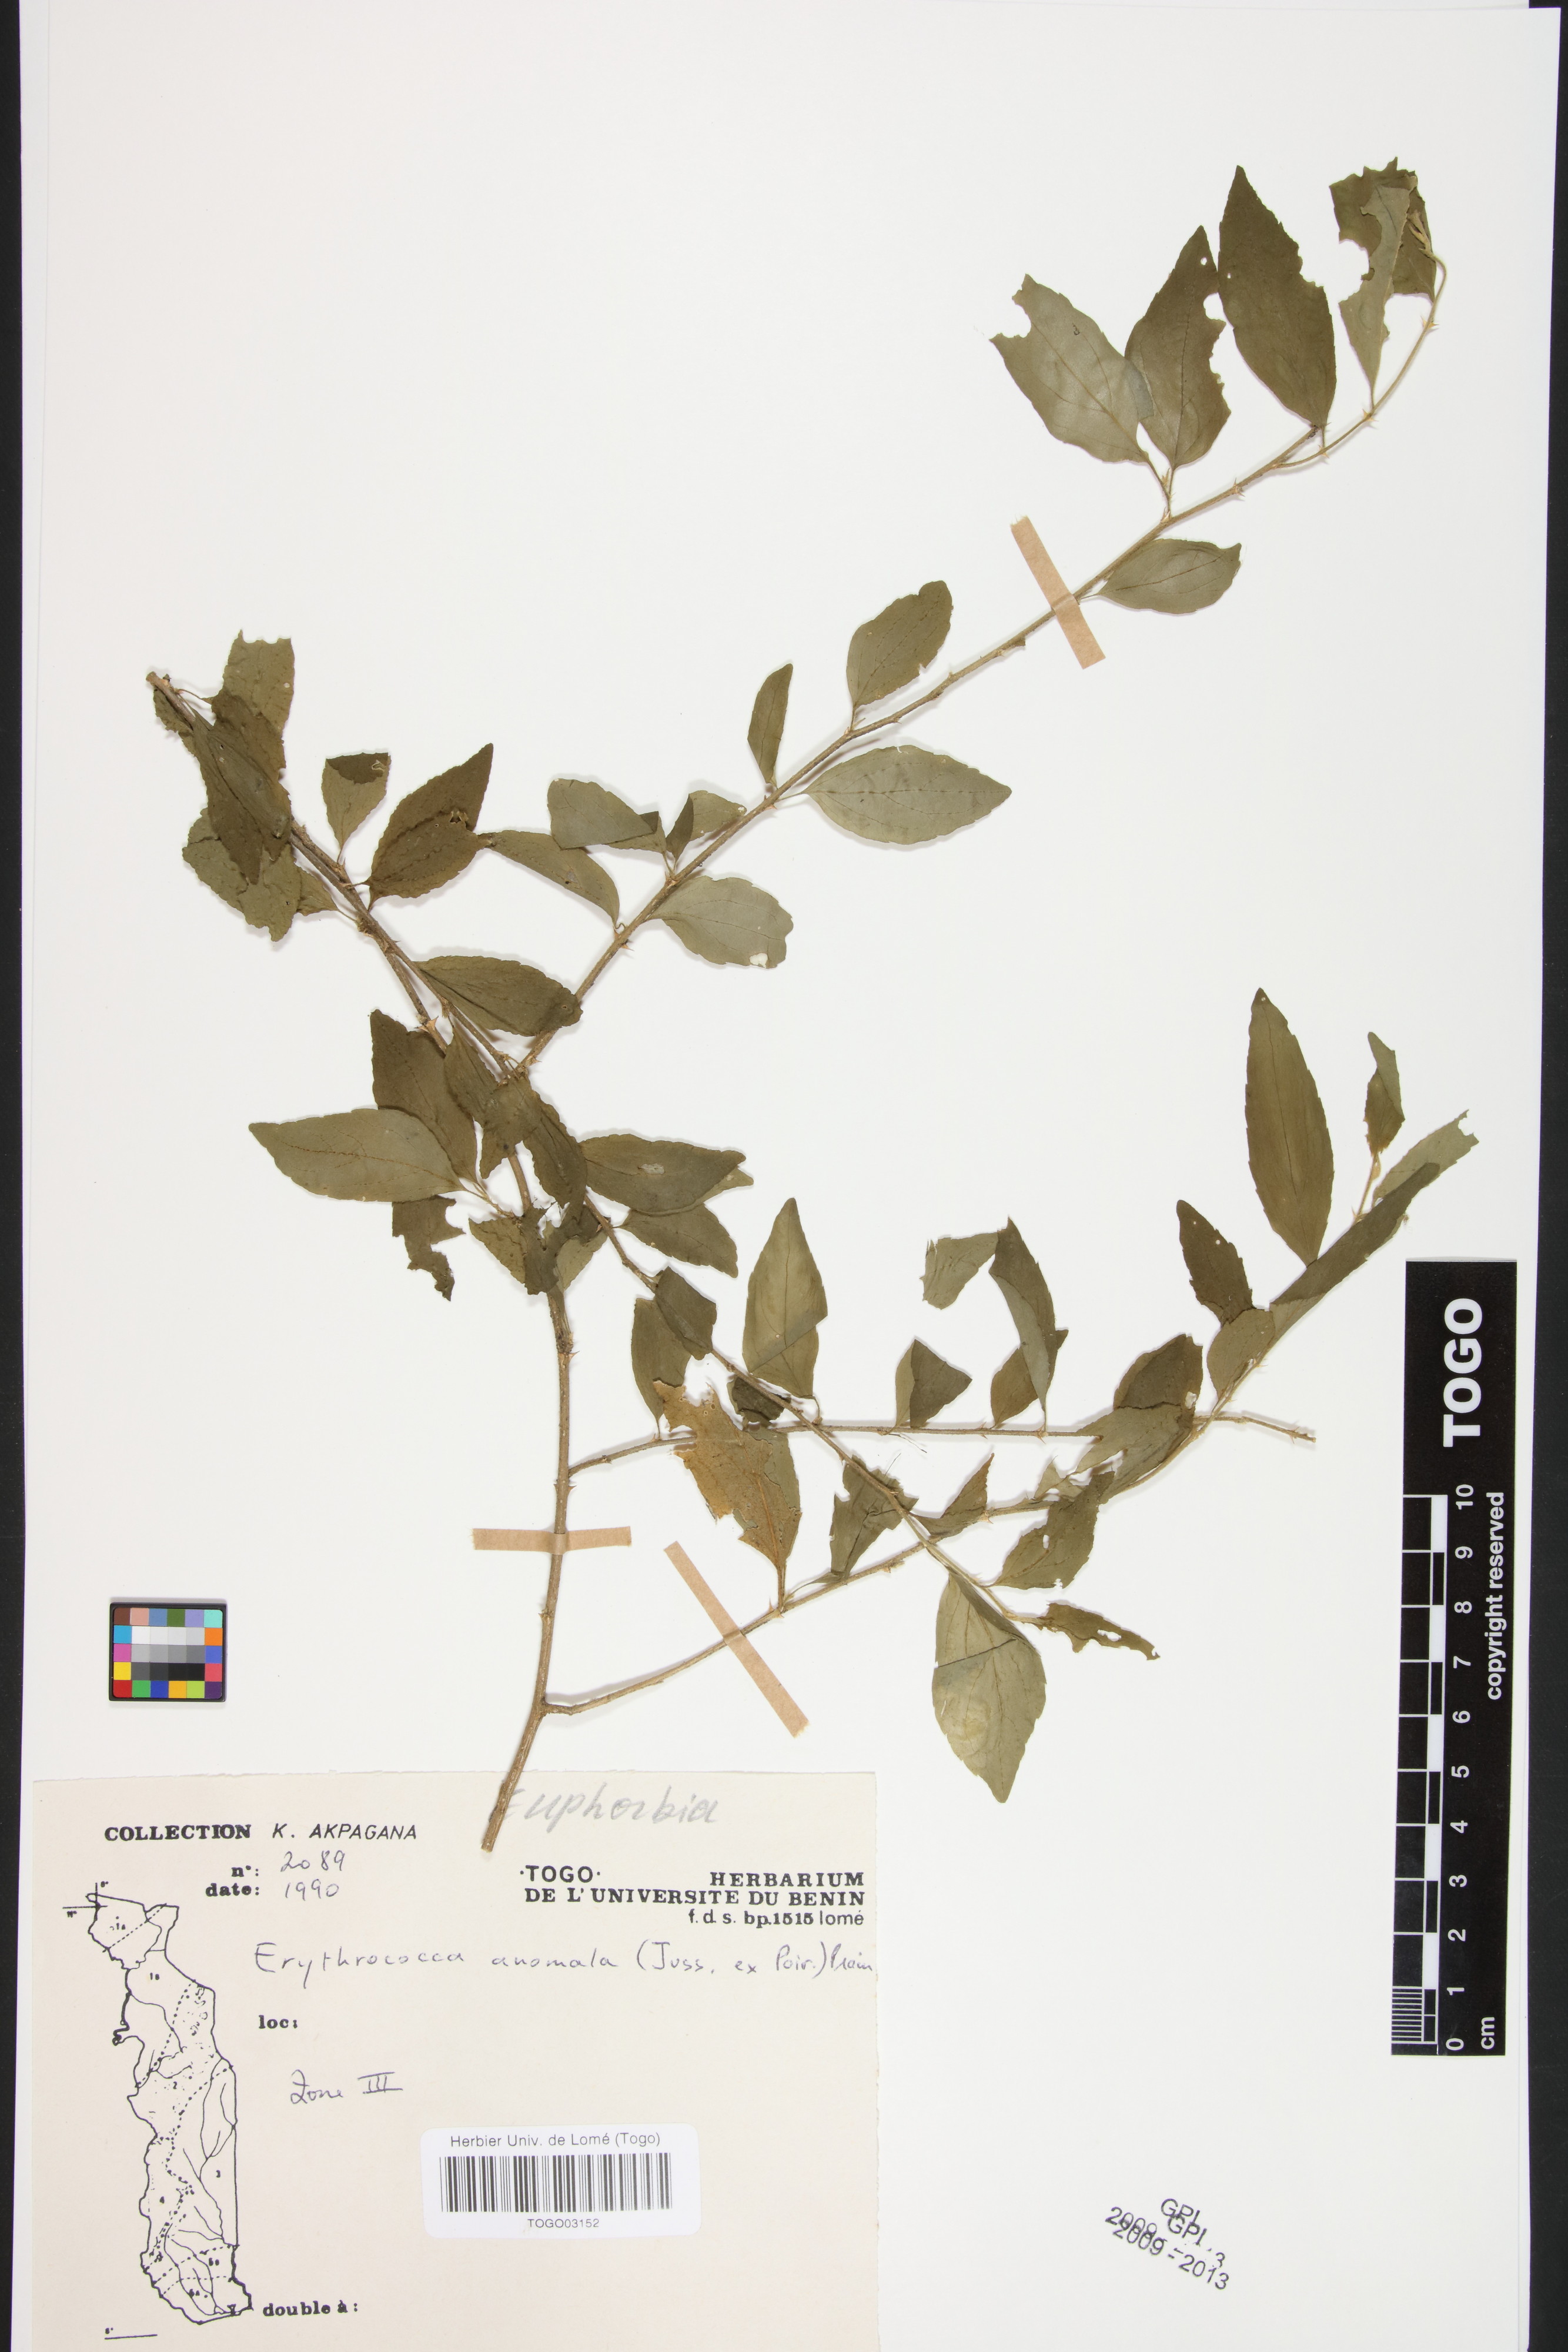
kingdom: Plantae
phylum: Tracheophyta
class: Magnoliopsida
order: Malpighiales
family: Euphorbiaceae
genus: Erythrococca
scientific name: Erythrococca anomala
